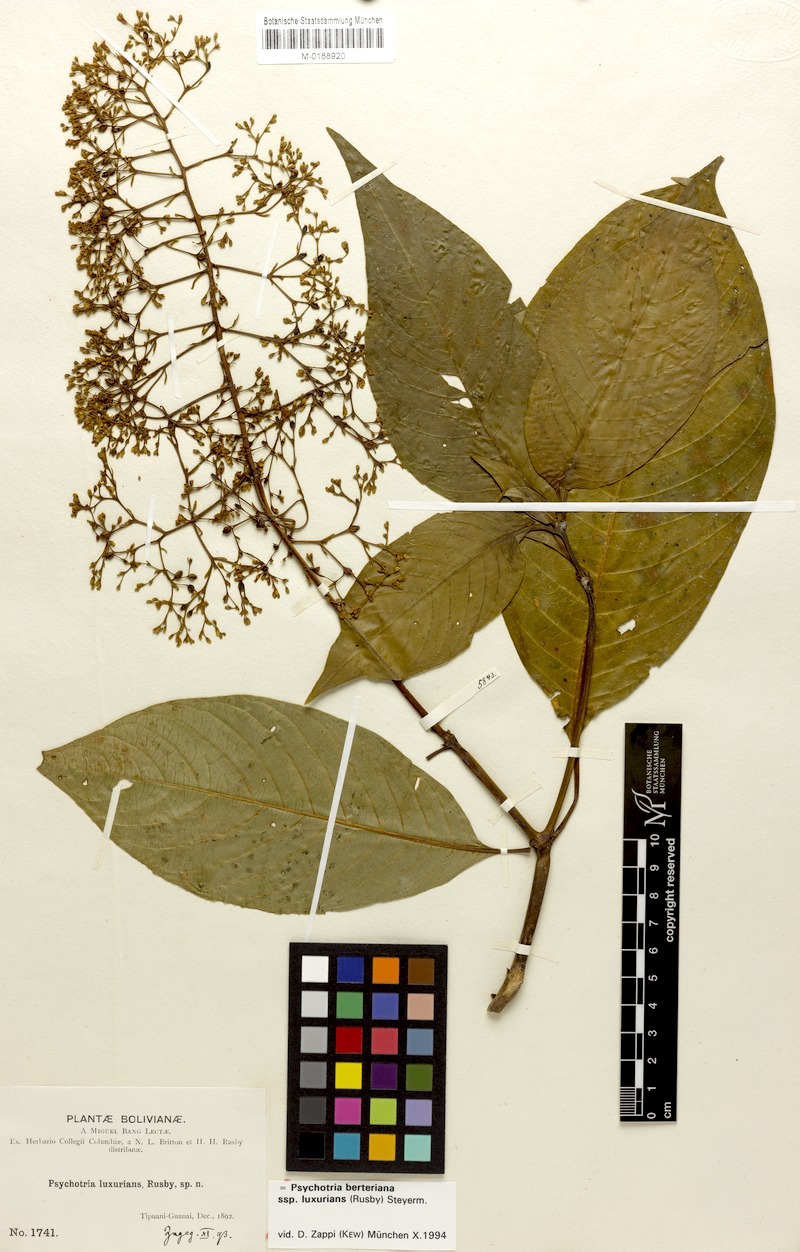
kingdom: Plantae
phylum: Tracheophyta
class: Magnoliopsida
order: Gentianales
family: Rubiaceae
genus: Palicourea
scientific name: Palicourea luxurians
